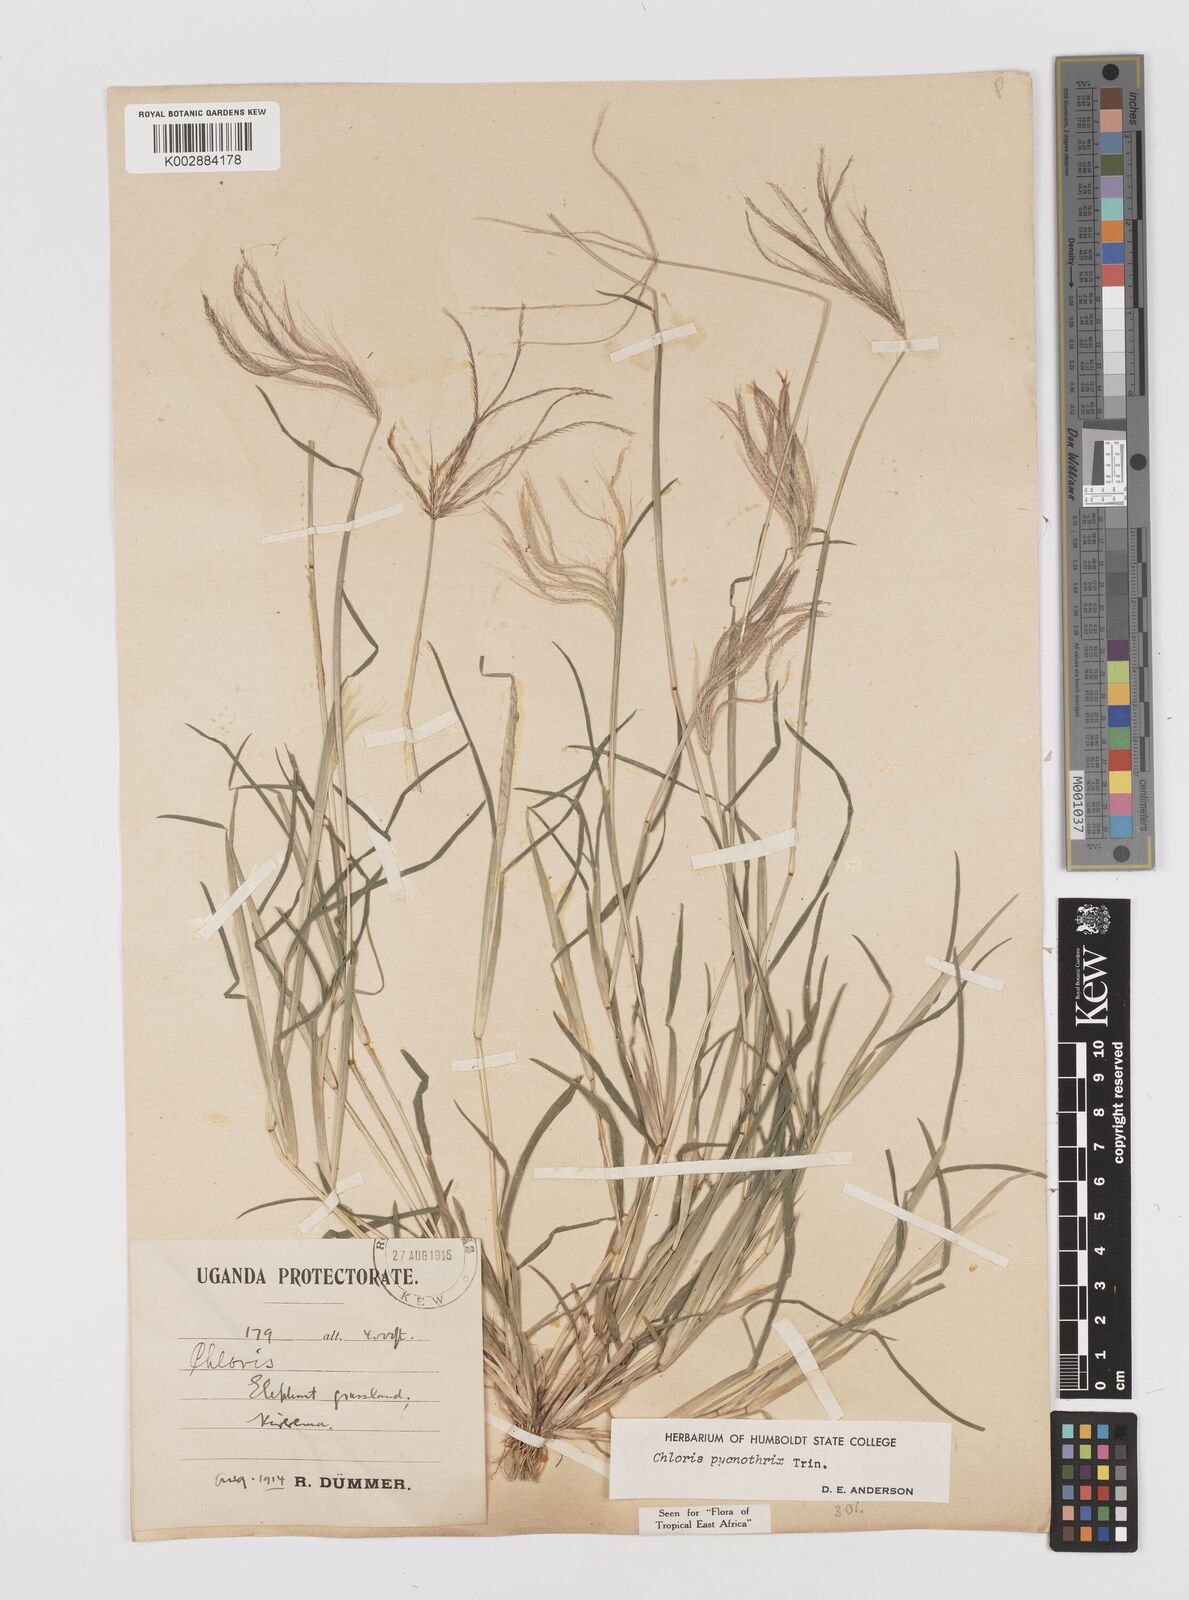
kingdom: Plantae
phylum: Tracheophyta
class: Liliopsida
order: Poales
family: Poaceae
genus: Chloris
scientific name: Chloris pycnothrix
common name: Spiderweb chloris
